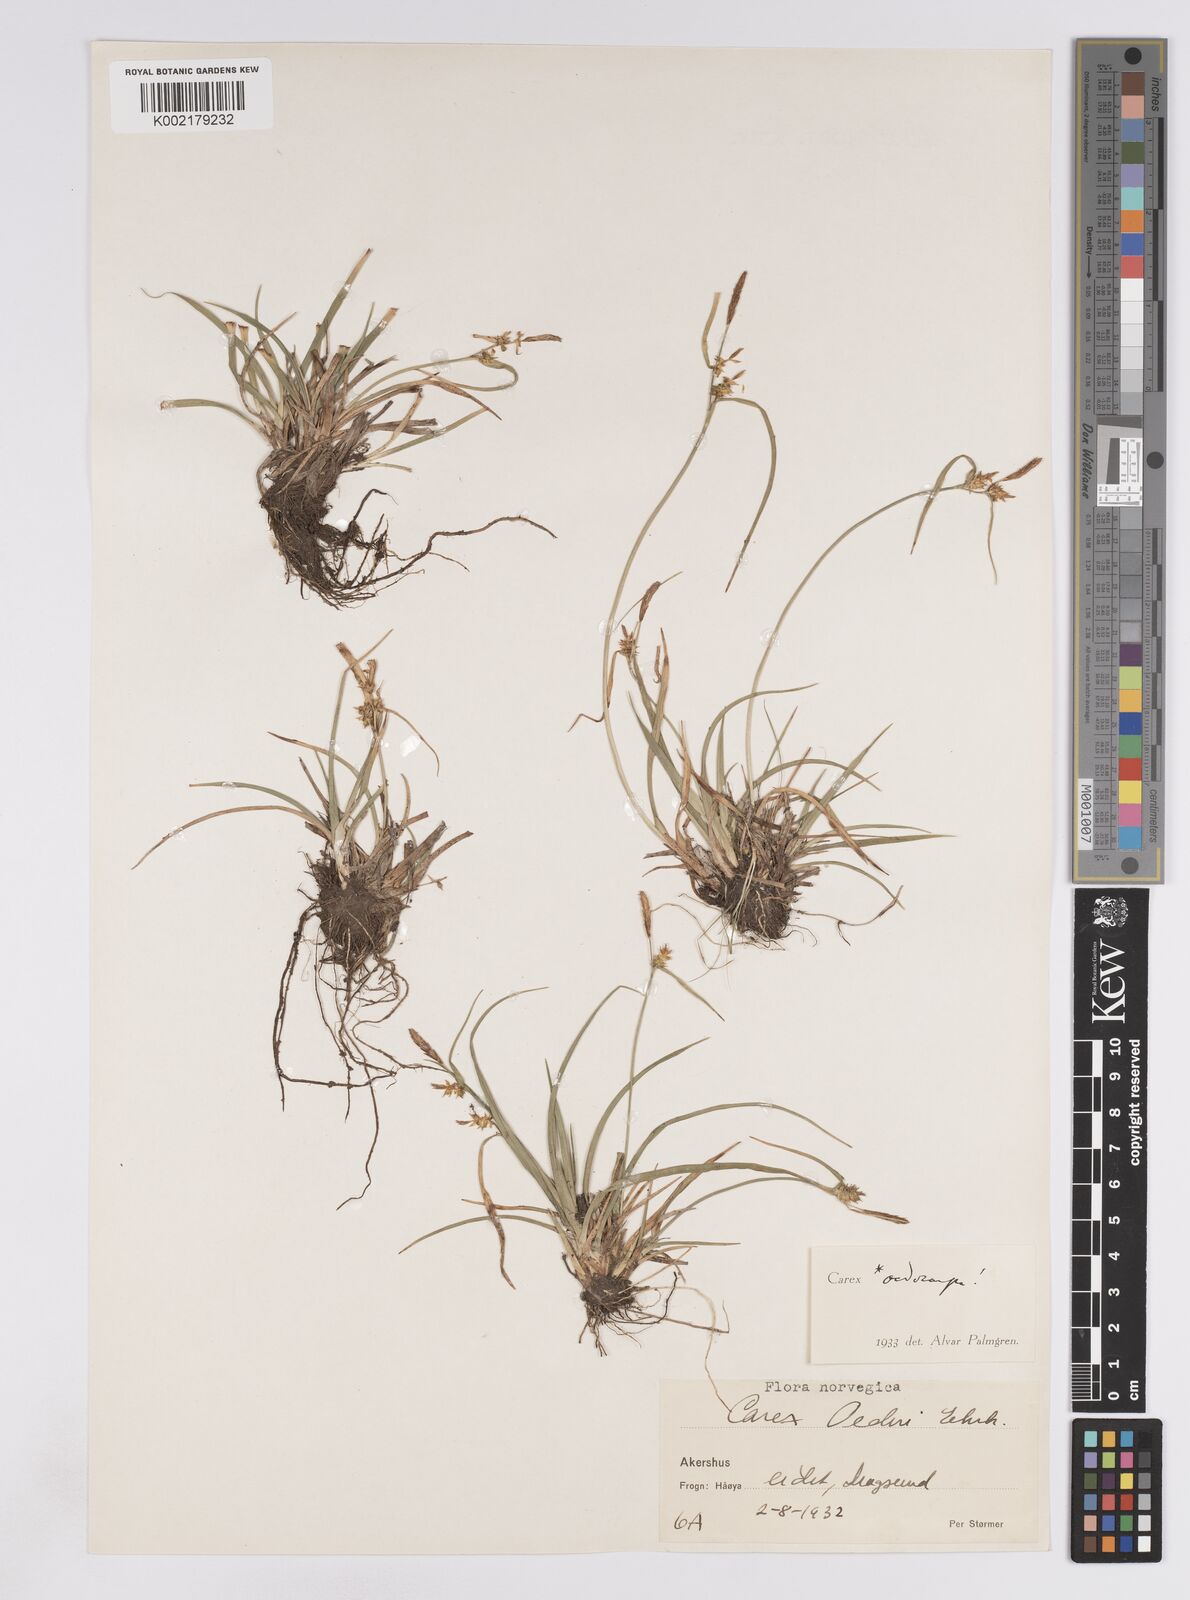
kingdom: Plantae
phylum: Tracheophyta
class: Liliopsida
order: Poales
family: Cyperaceae
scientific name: Cyperaceae
